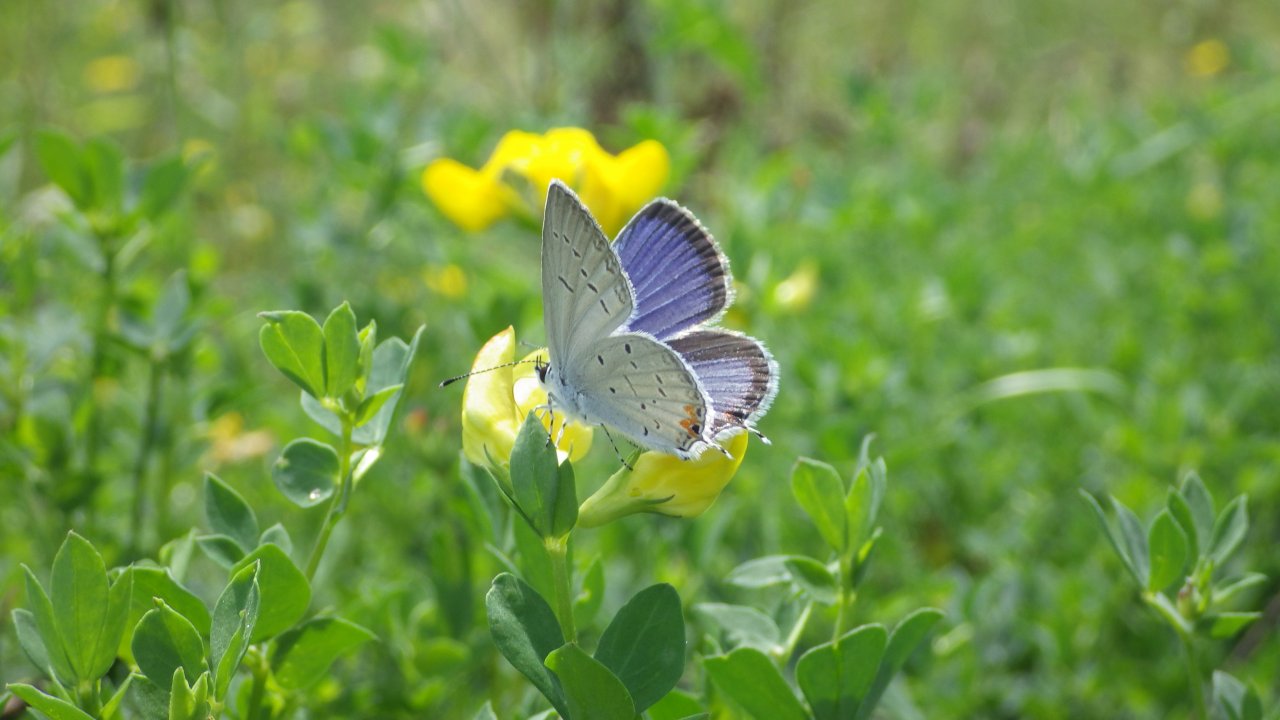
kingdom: Animalia
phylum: Arthropoda
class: Insecta
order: Lepidoptera
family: Lycaenidae
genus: Elkalyce
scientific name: Elkalyce comyntas
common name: Eastern Tailed-Blue
